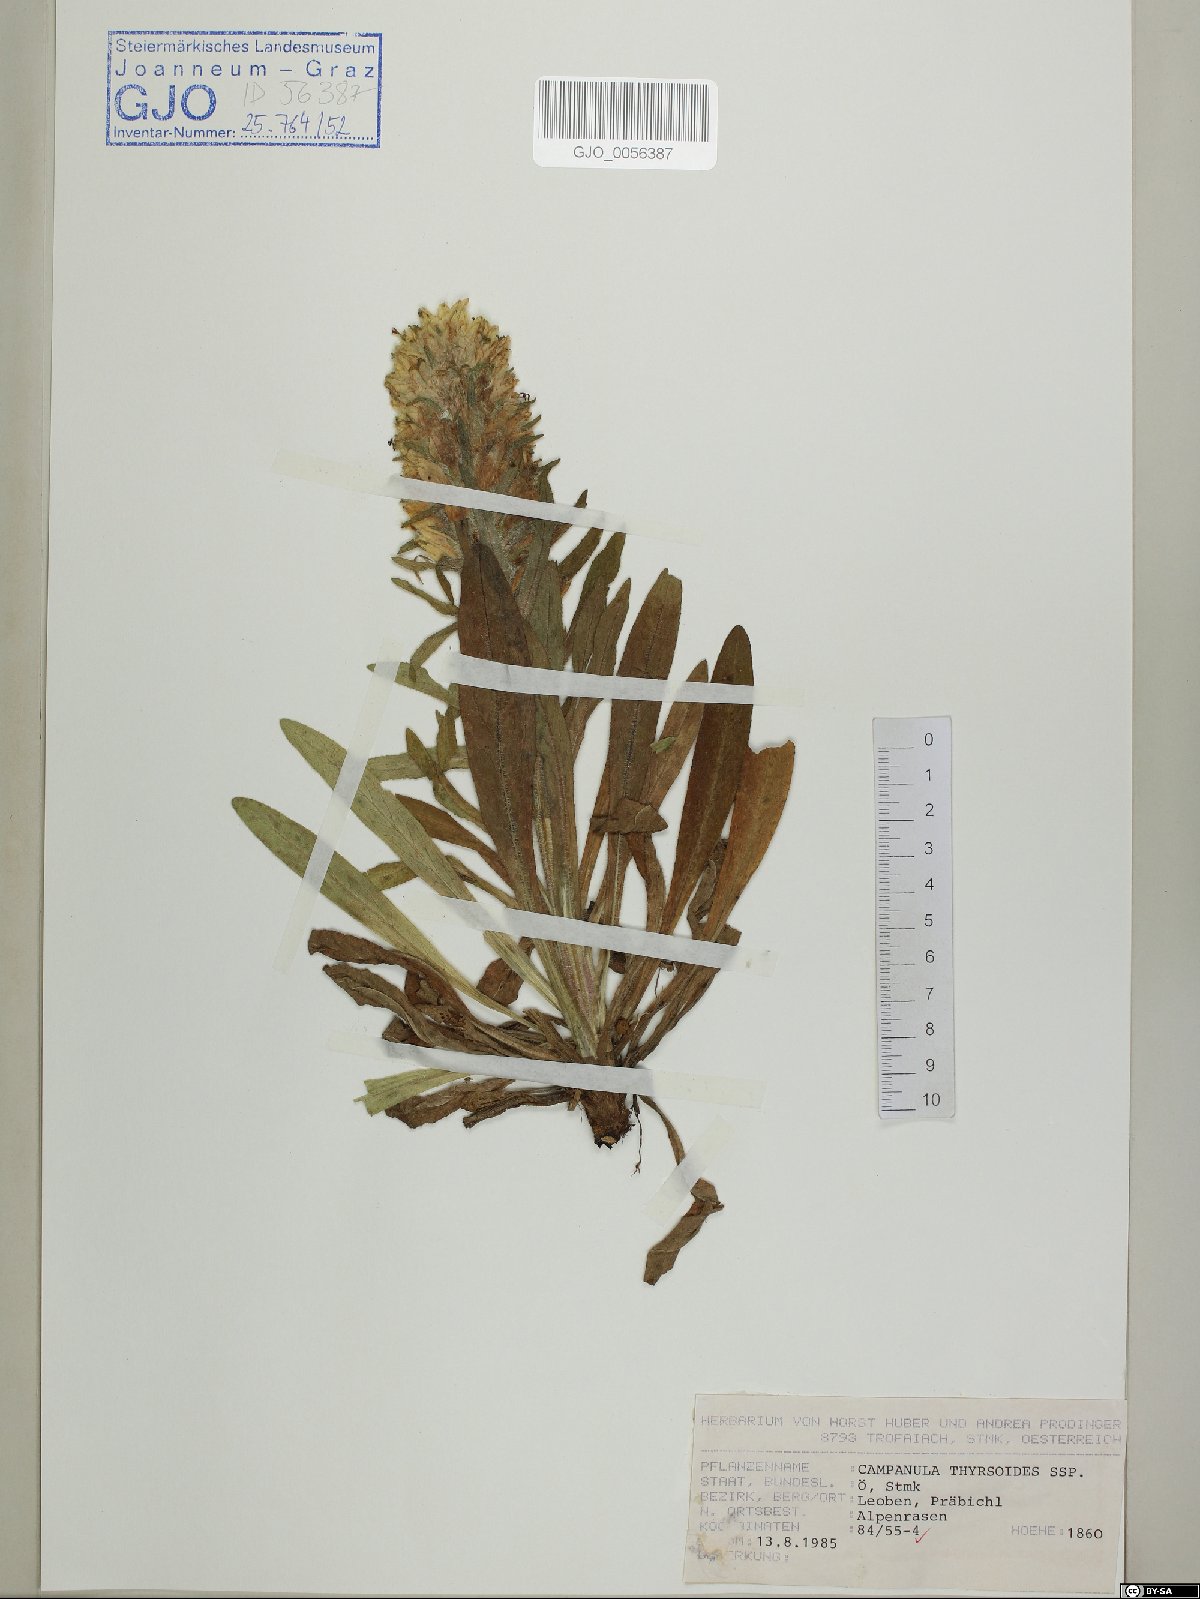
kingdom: Plantae
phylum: Tracheophyta
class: Magnoliopsida
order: Asterales
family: Campanulaceae
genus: Campanula
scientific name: Campanula thyrsoides
